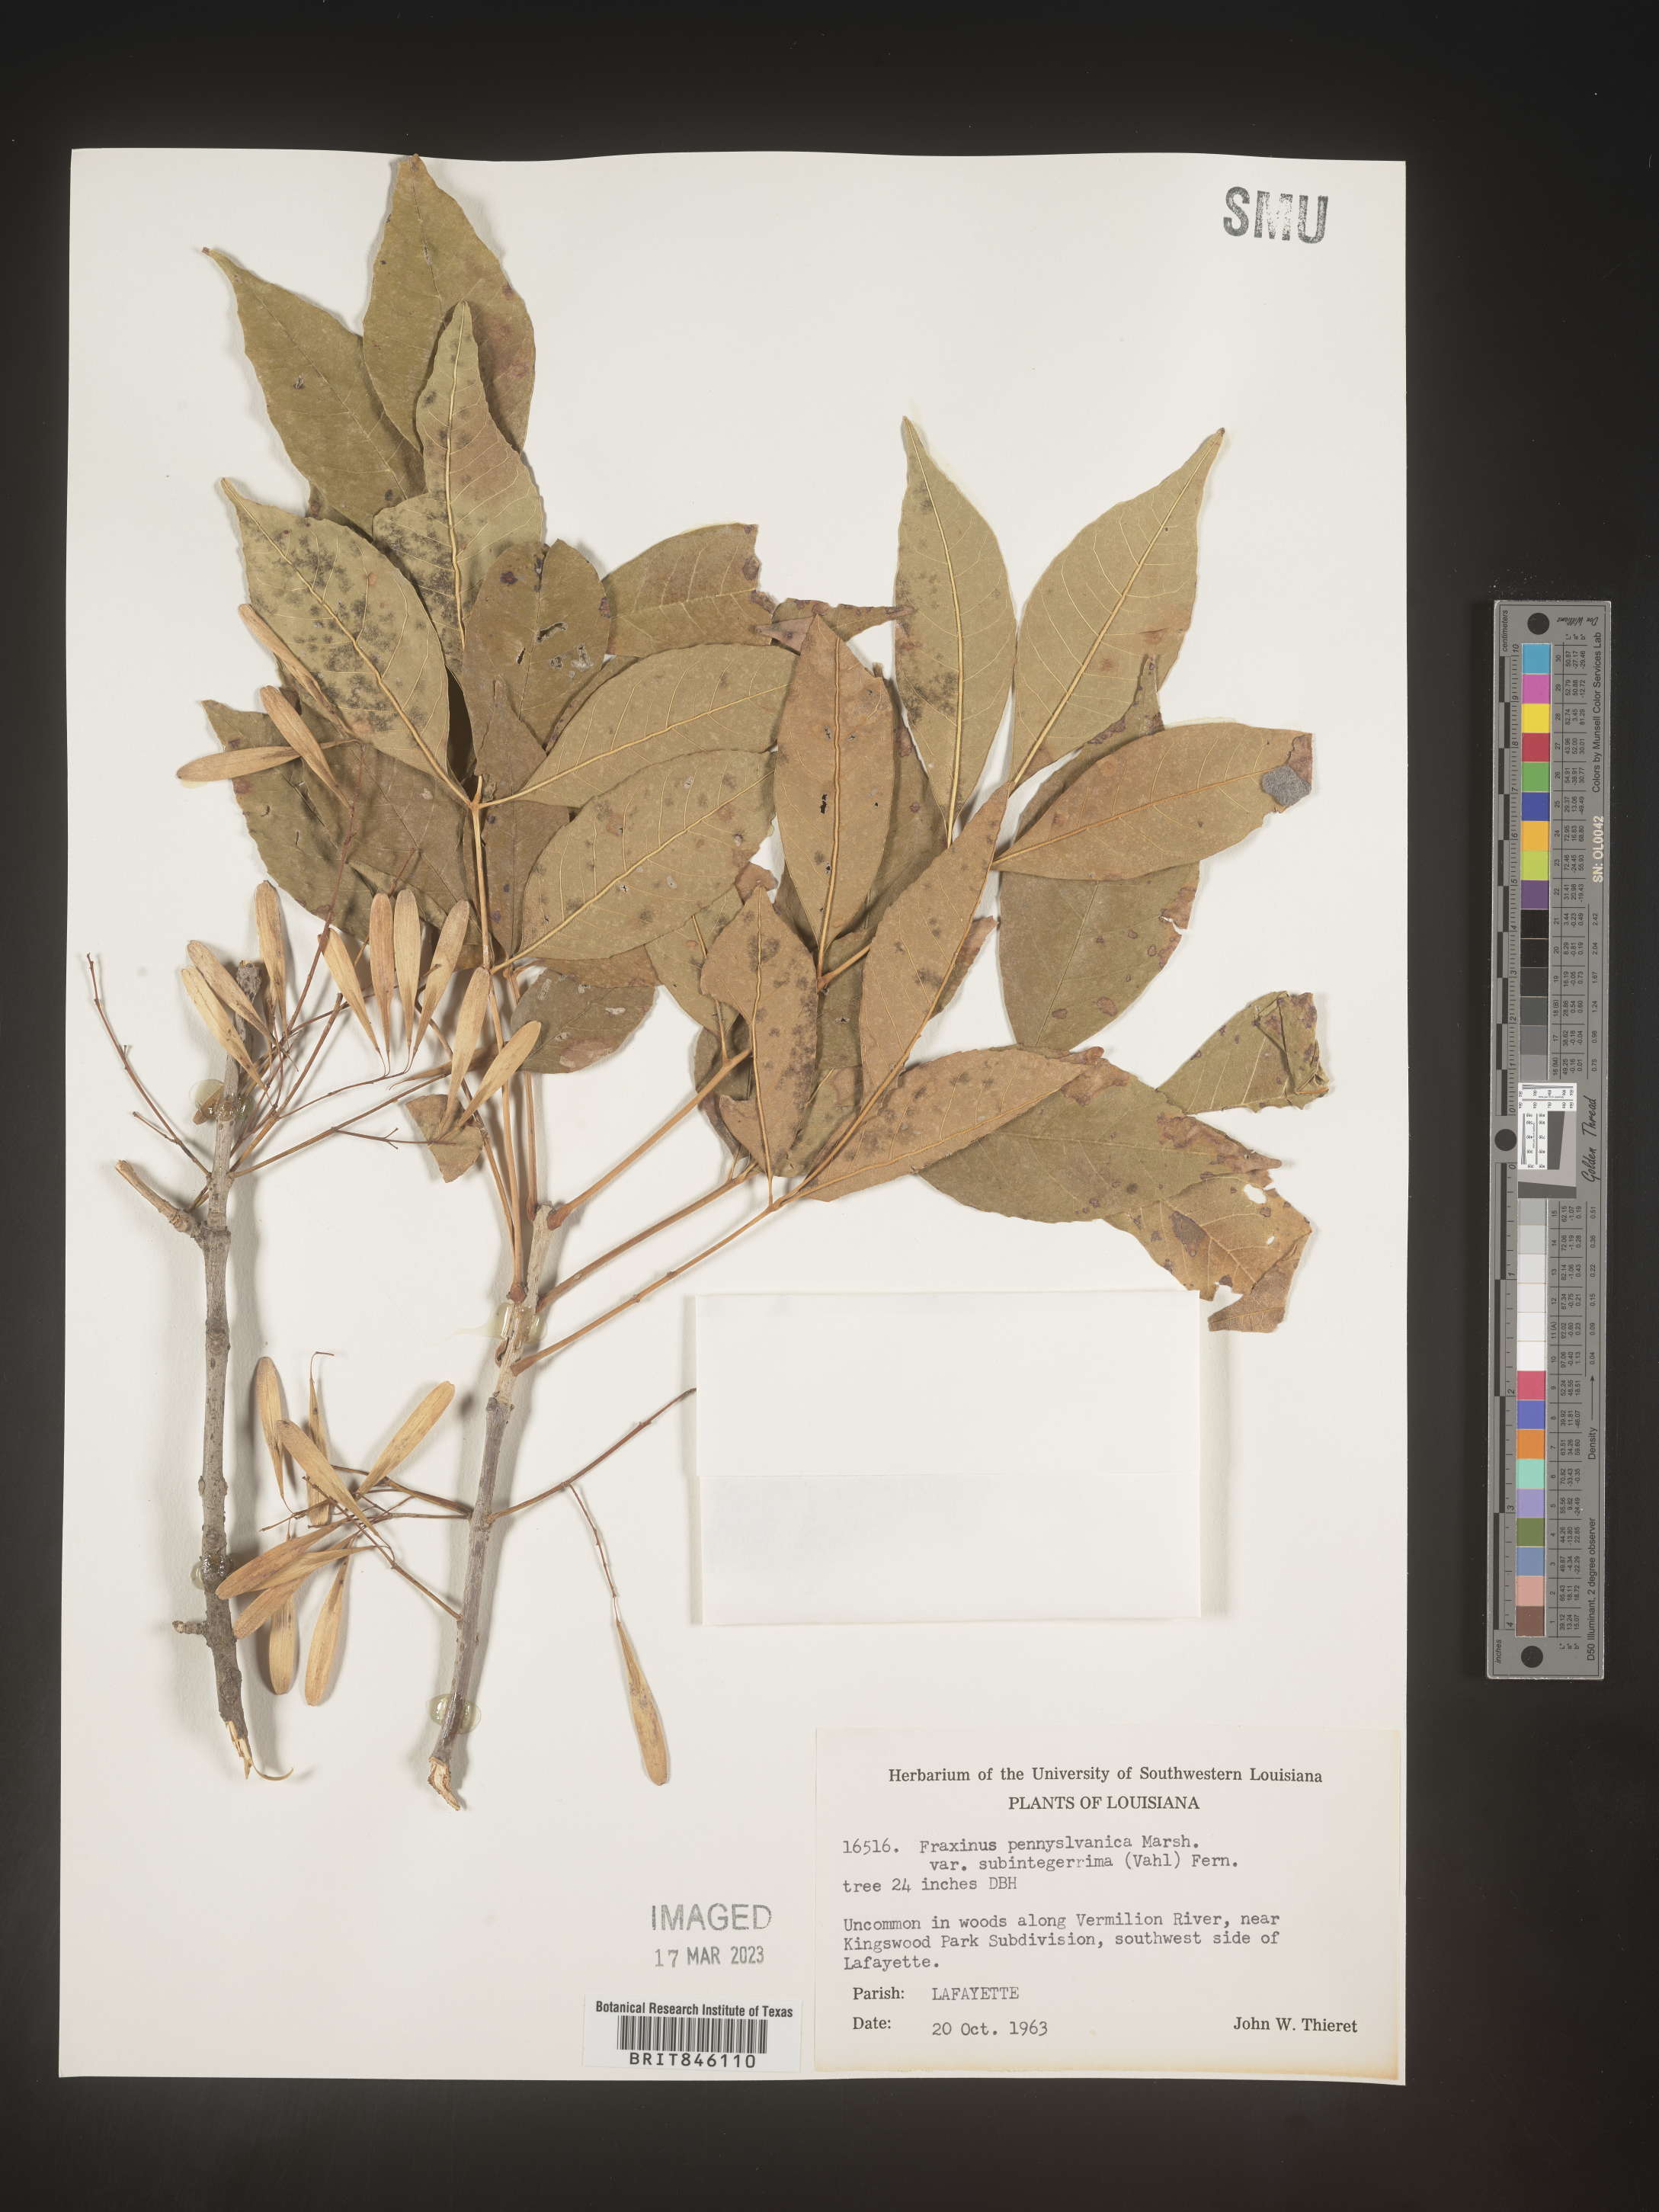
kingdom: Plantae
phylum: Tracheophyta
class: Magnoliopsida
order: Lamiales
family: Oleaceae
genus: Fraxinus
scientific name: Fraxinus pennsylvanica
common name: Green ash
